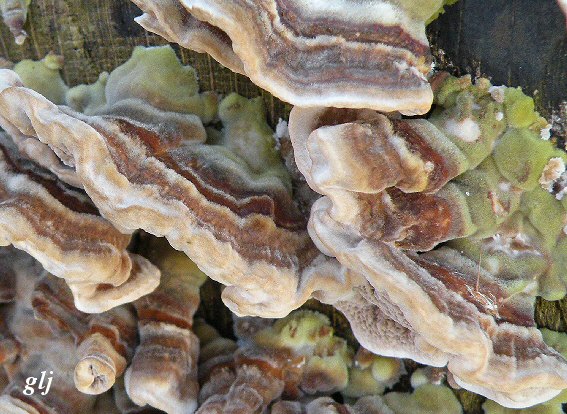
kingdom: Fungi
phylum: Basidiomycota
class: Agaricomycetes
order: Polyporales
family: Polyporaceae
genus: Trametes
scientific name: Trametes versicolor
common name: broget læderporesvamp
